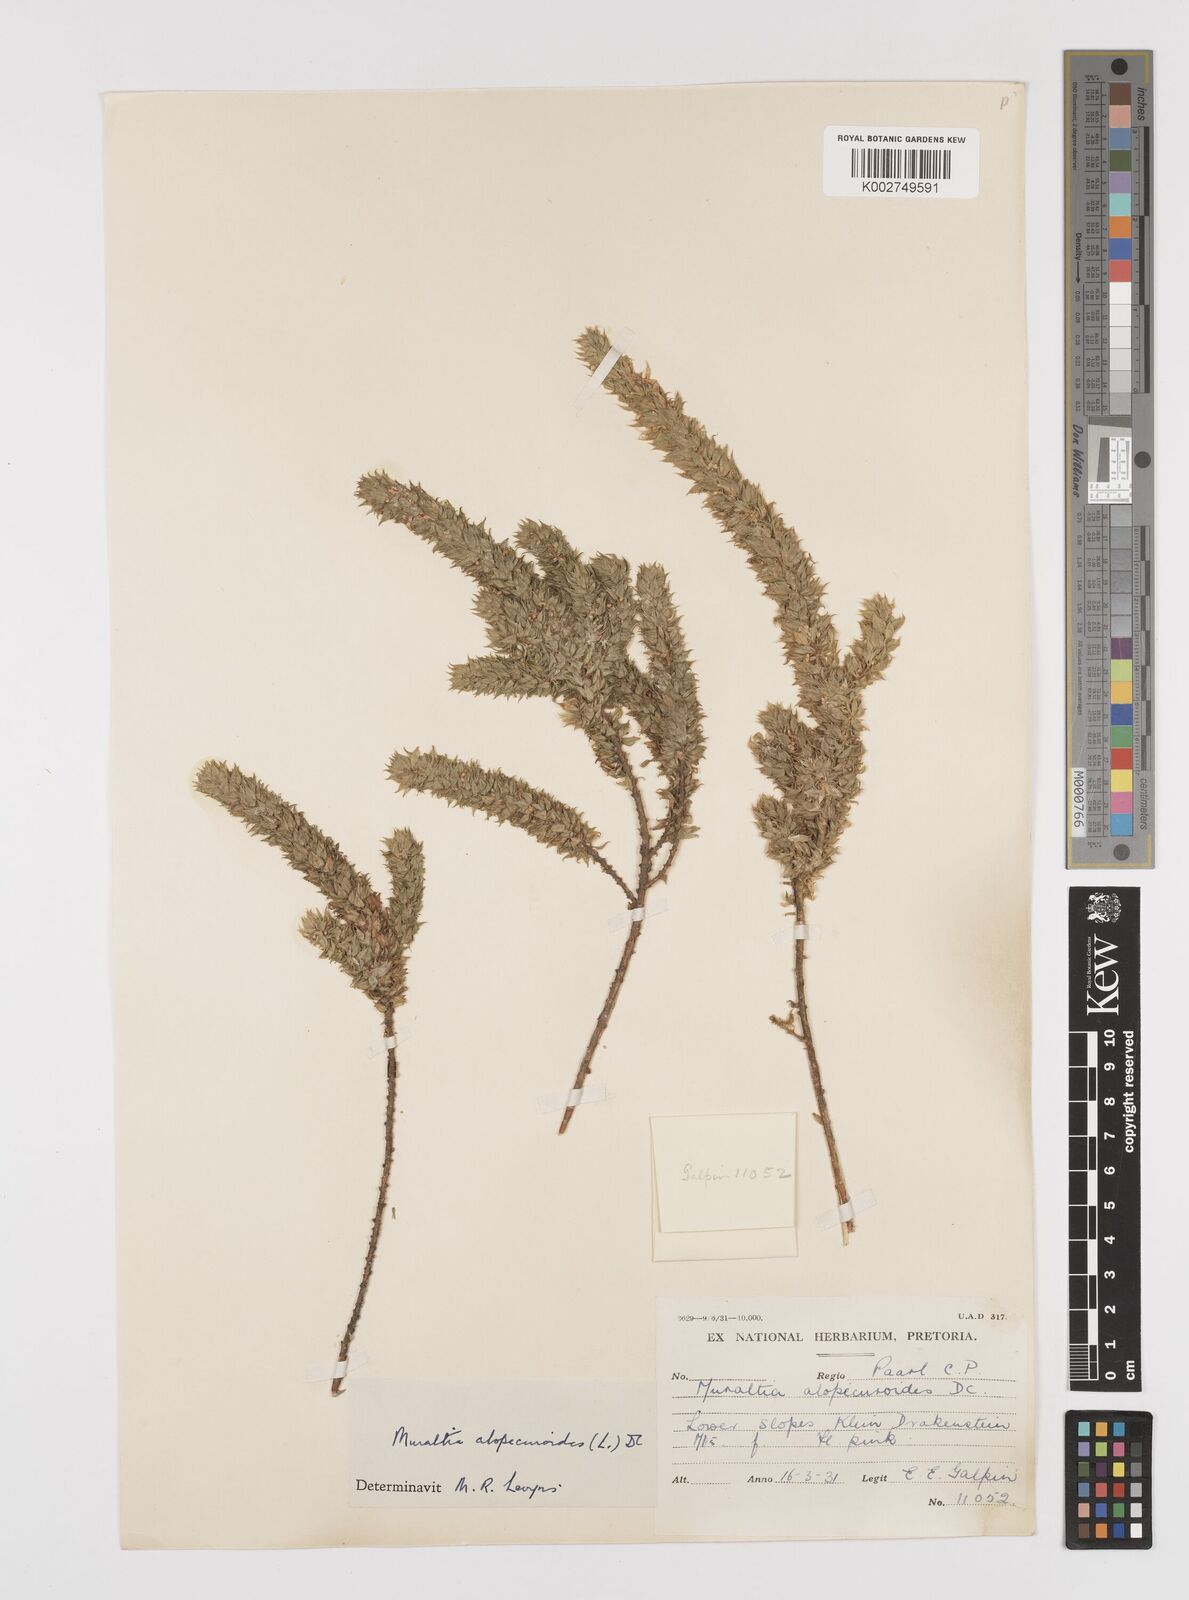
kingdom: Plantae
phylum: Tracheophyta
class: Magnoliopsida
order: Fabales
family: Polygalaceae
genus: Muraltia
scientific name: Muraltia alopecuroides
